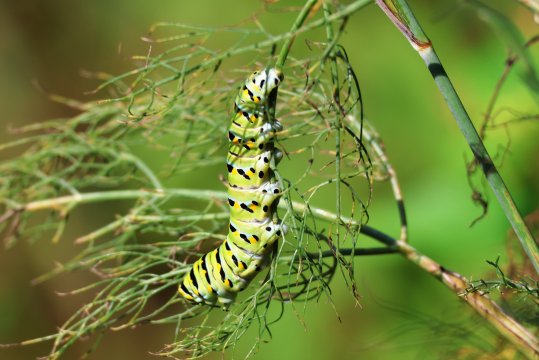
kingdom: Animalia
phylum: Arthropoda
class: Insecta
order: Lepidoptera
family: Papilionidae
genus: Papilio
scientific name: Papilio polyxenes
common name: Black Swallowtail
